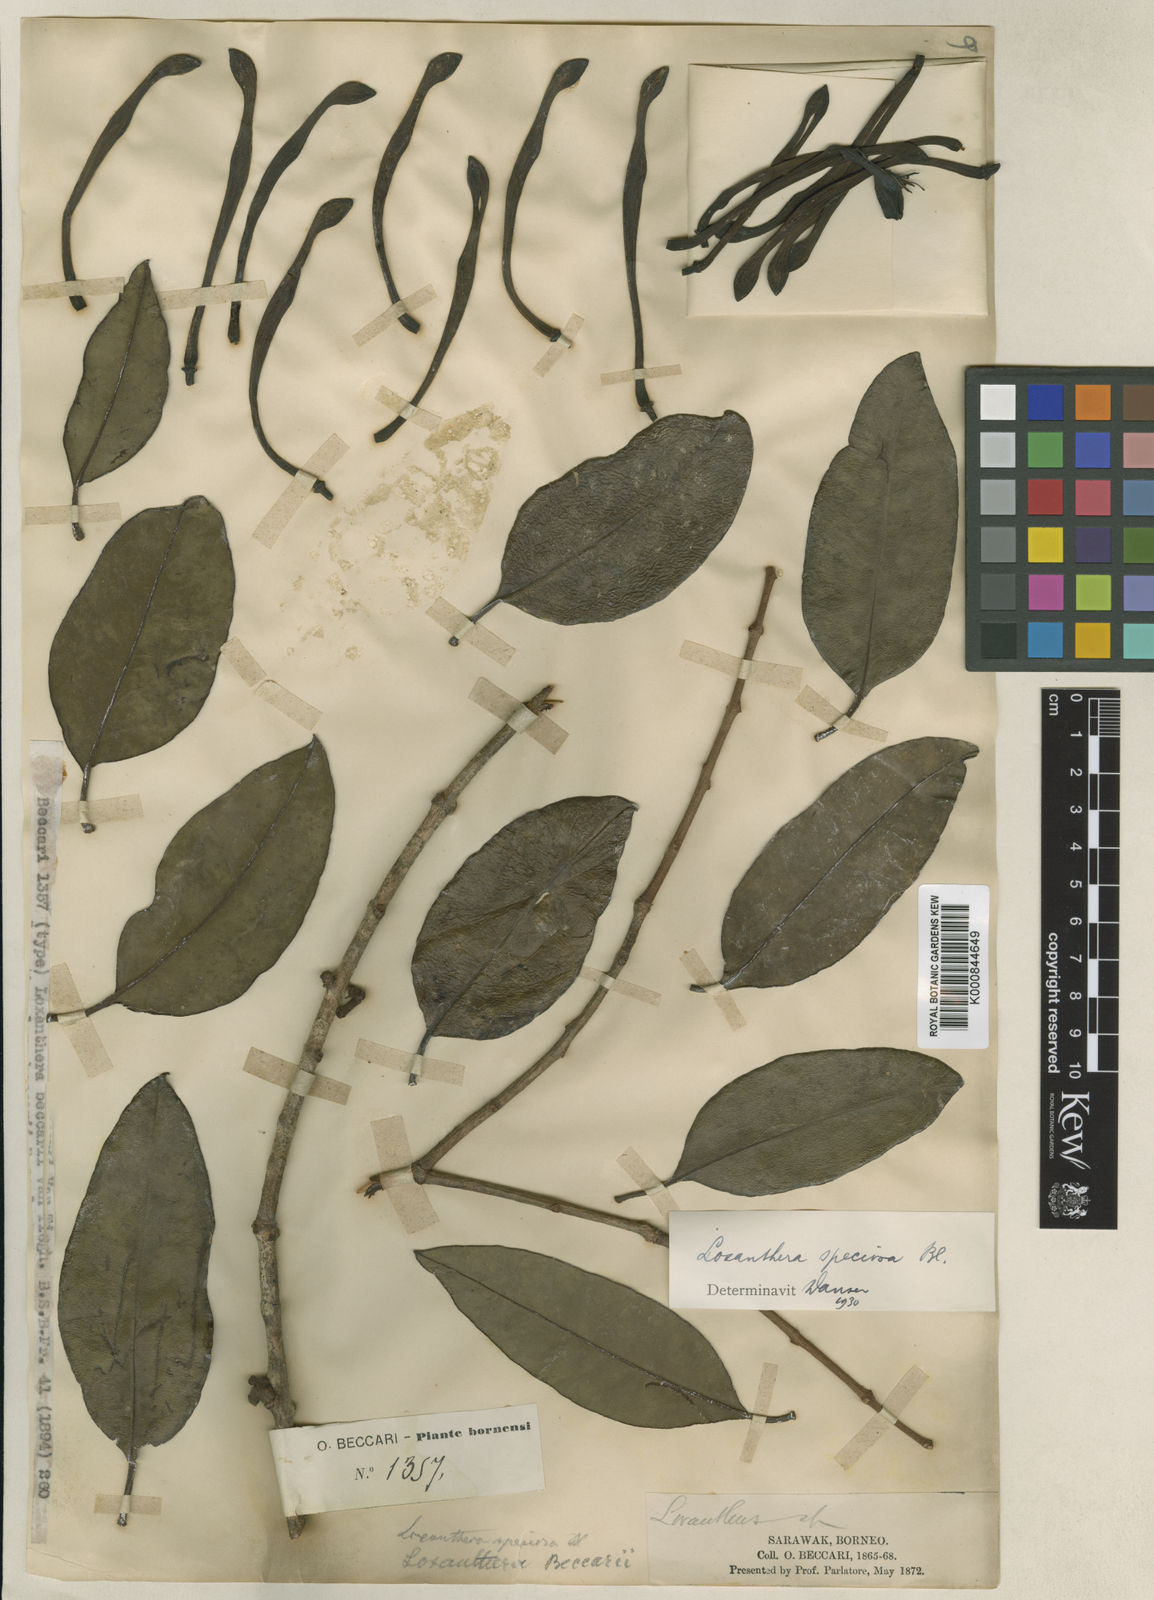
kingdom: Plantae
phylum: Tracheophyta
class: Magnoliopsida
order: Santalales
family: Loranthaceae
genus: Loxanthera
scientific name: Loxanthera speciosa
